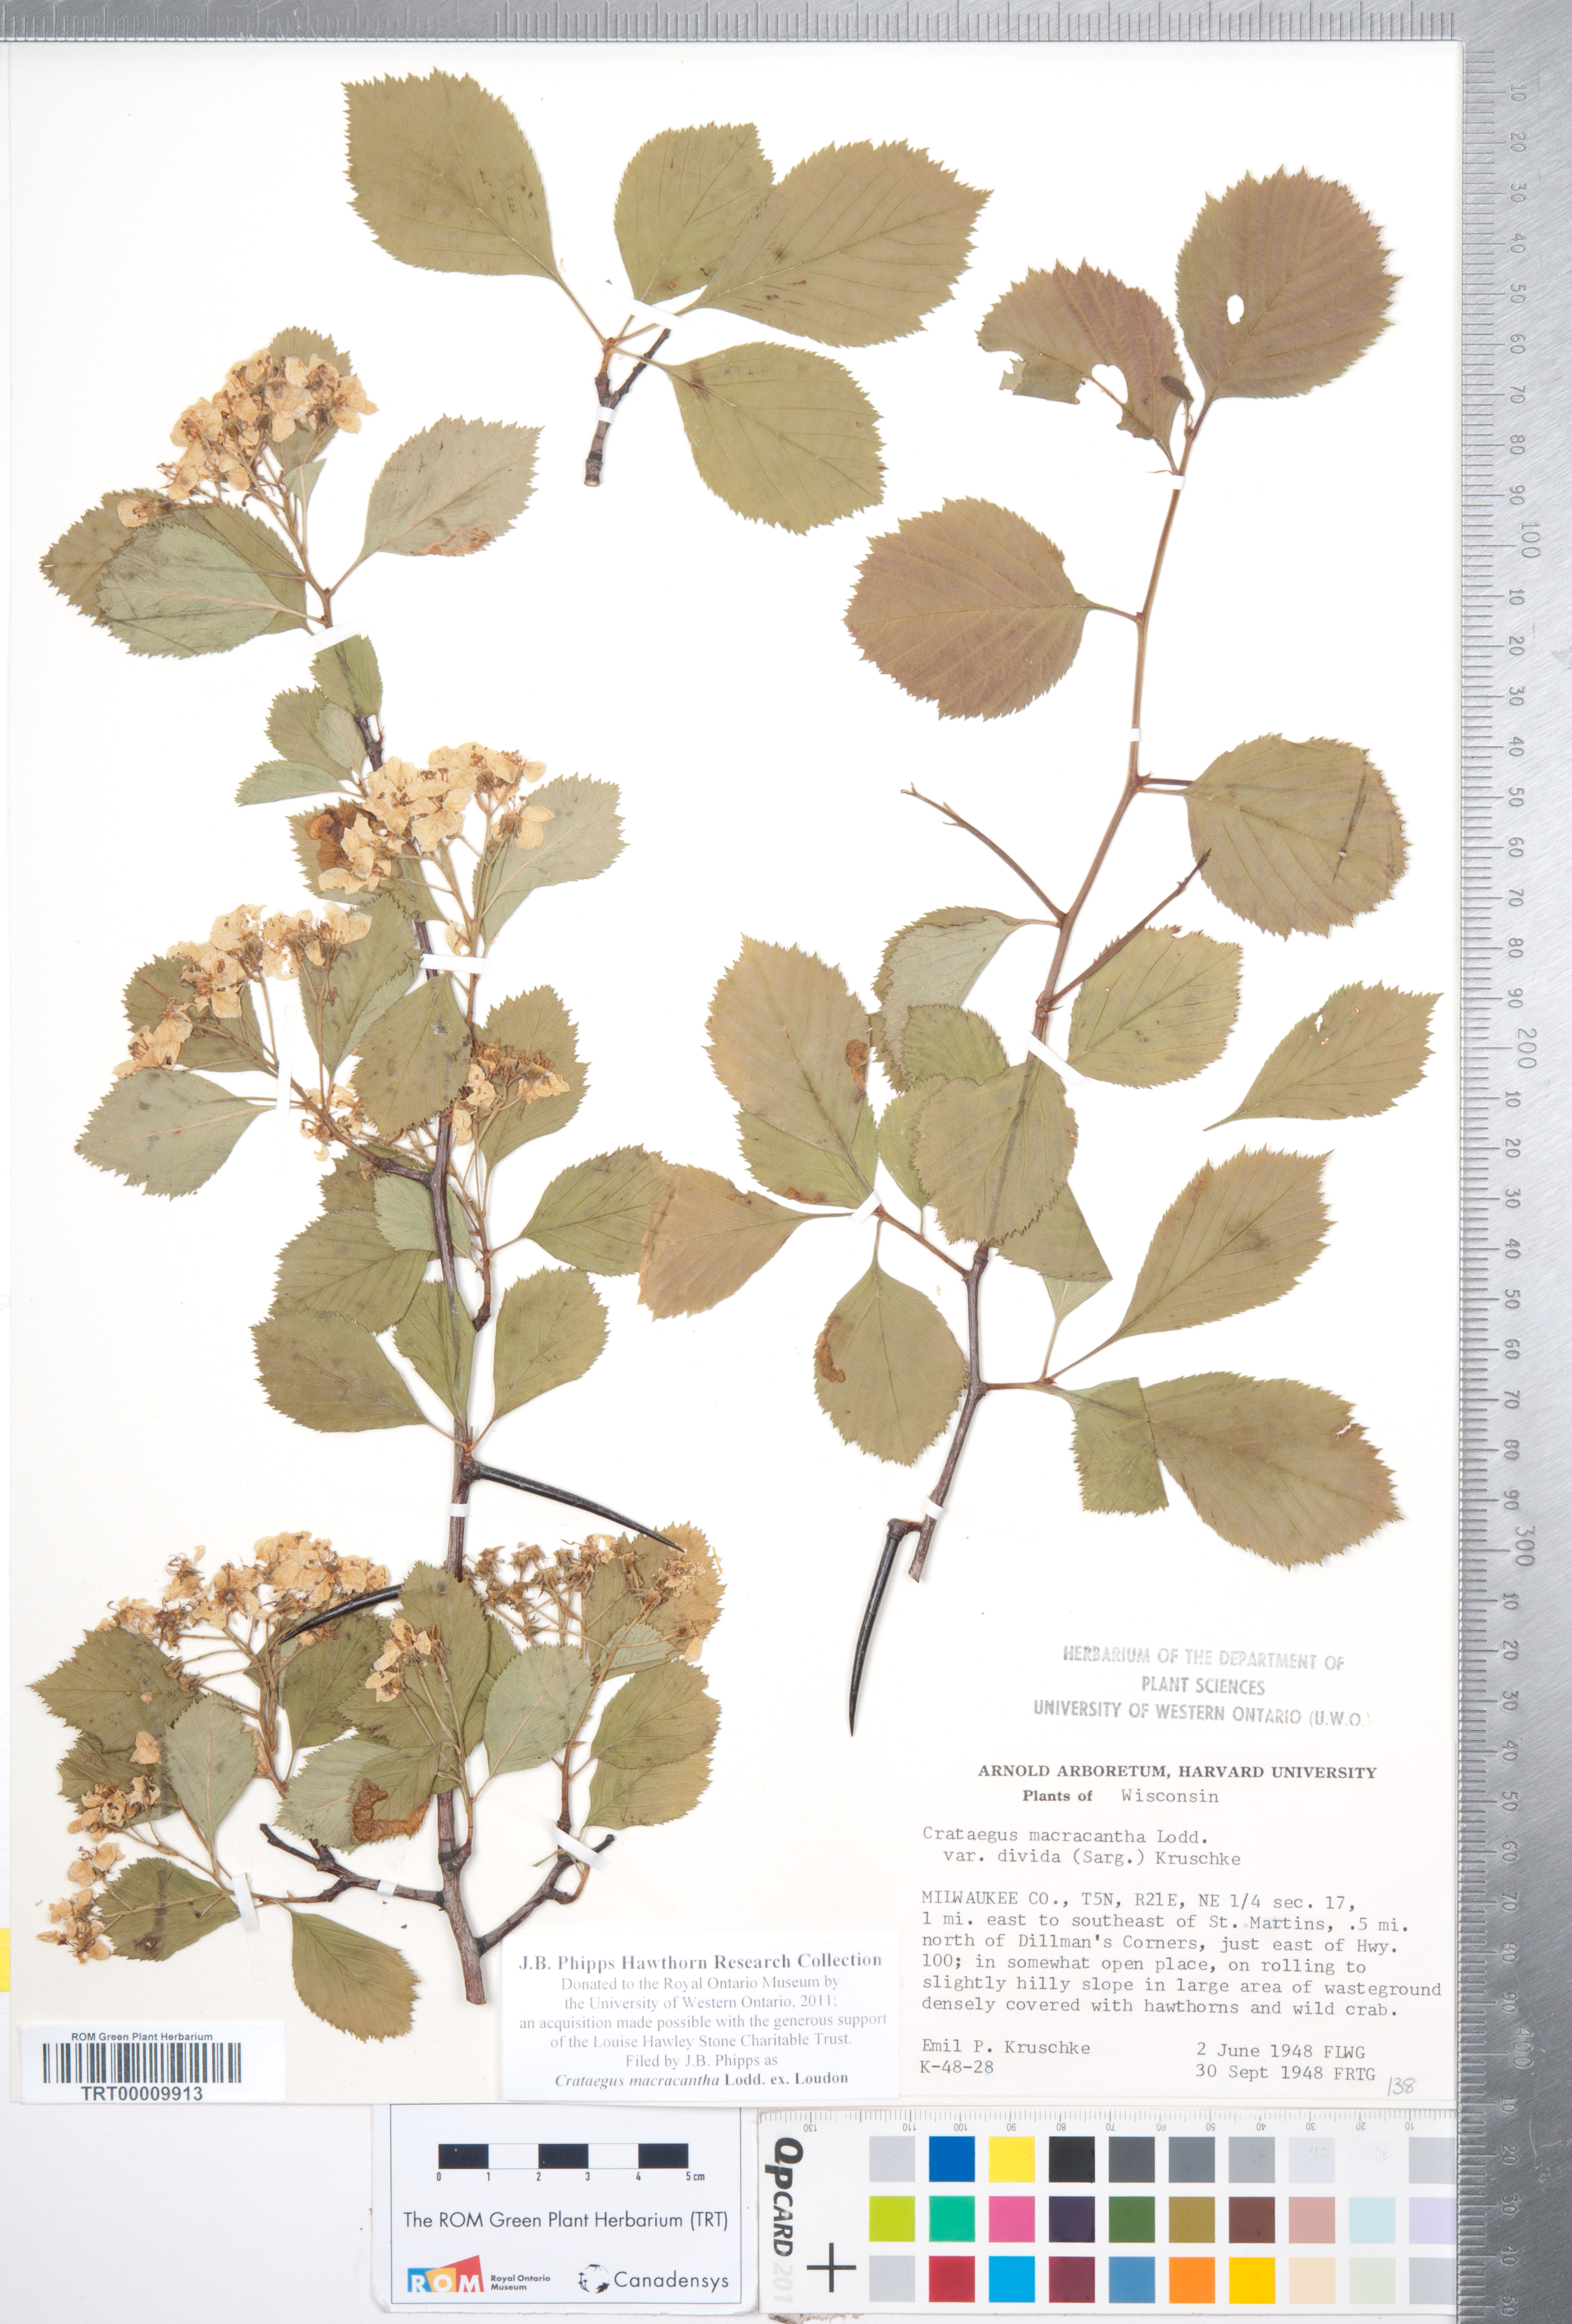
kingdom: Plantae
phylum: Tracheophyta
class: Magnoliopsida
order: Rosales
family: Rosaceae
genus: Crataegus
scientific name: Crataegus macracantha
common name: Large-thorn hawthorn
